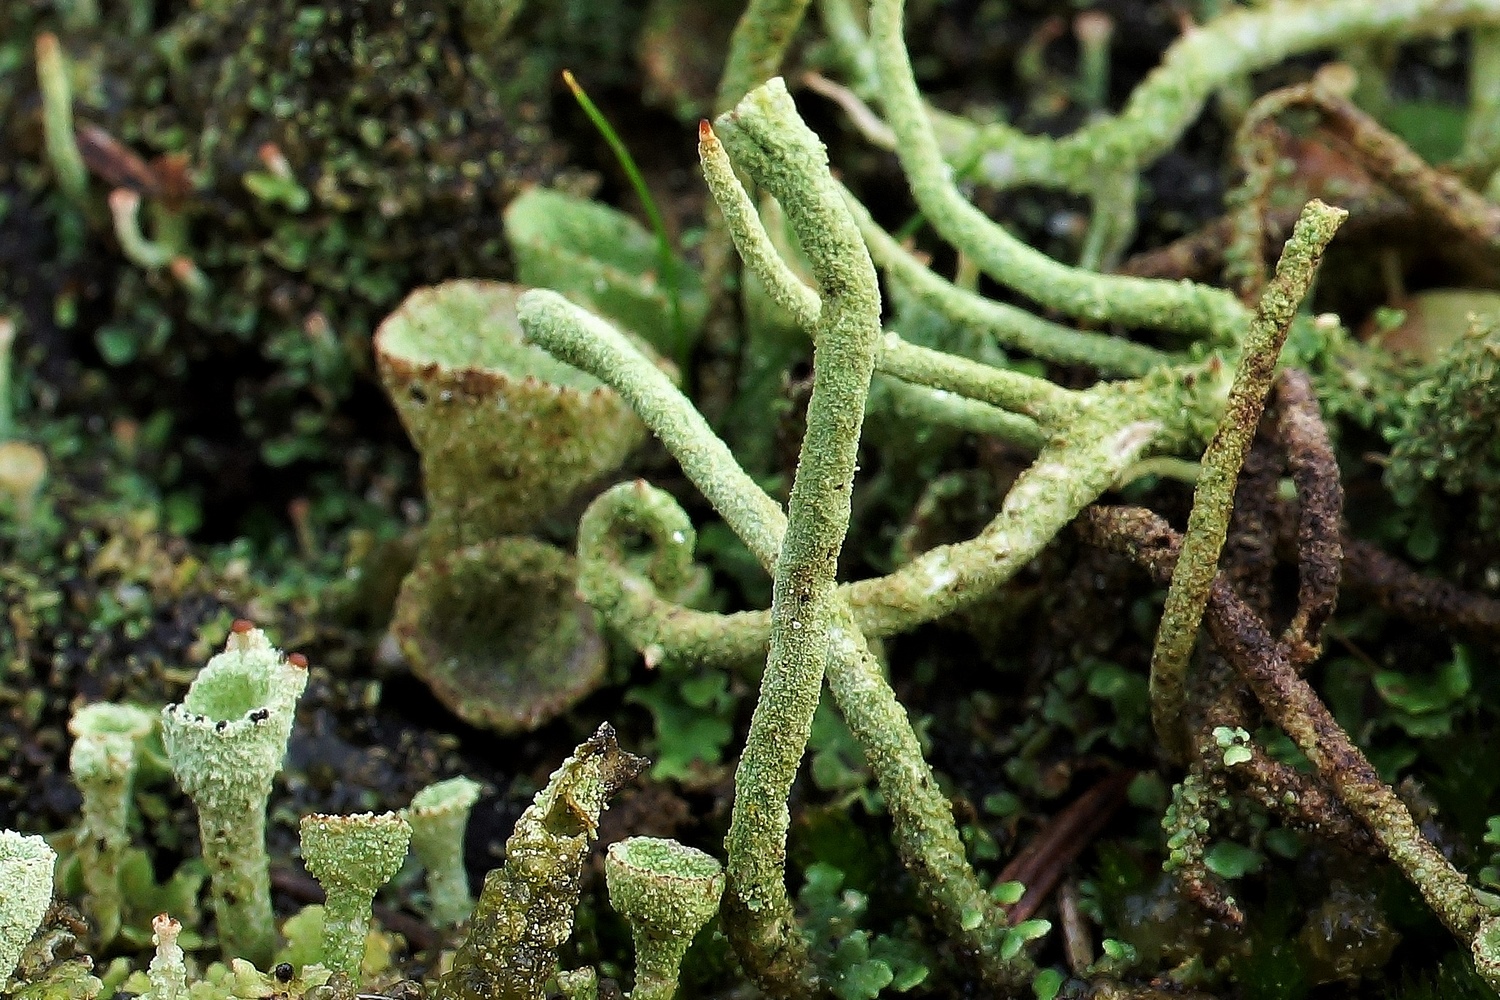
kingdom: Fungi
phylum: Ascomycota
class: Lecanoromycetes
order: Lecanorales
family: Cladoniaceae
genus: Cladonia
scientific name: Cladonia ochrochlora
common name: stød-bægerlav
